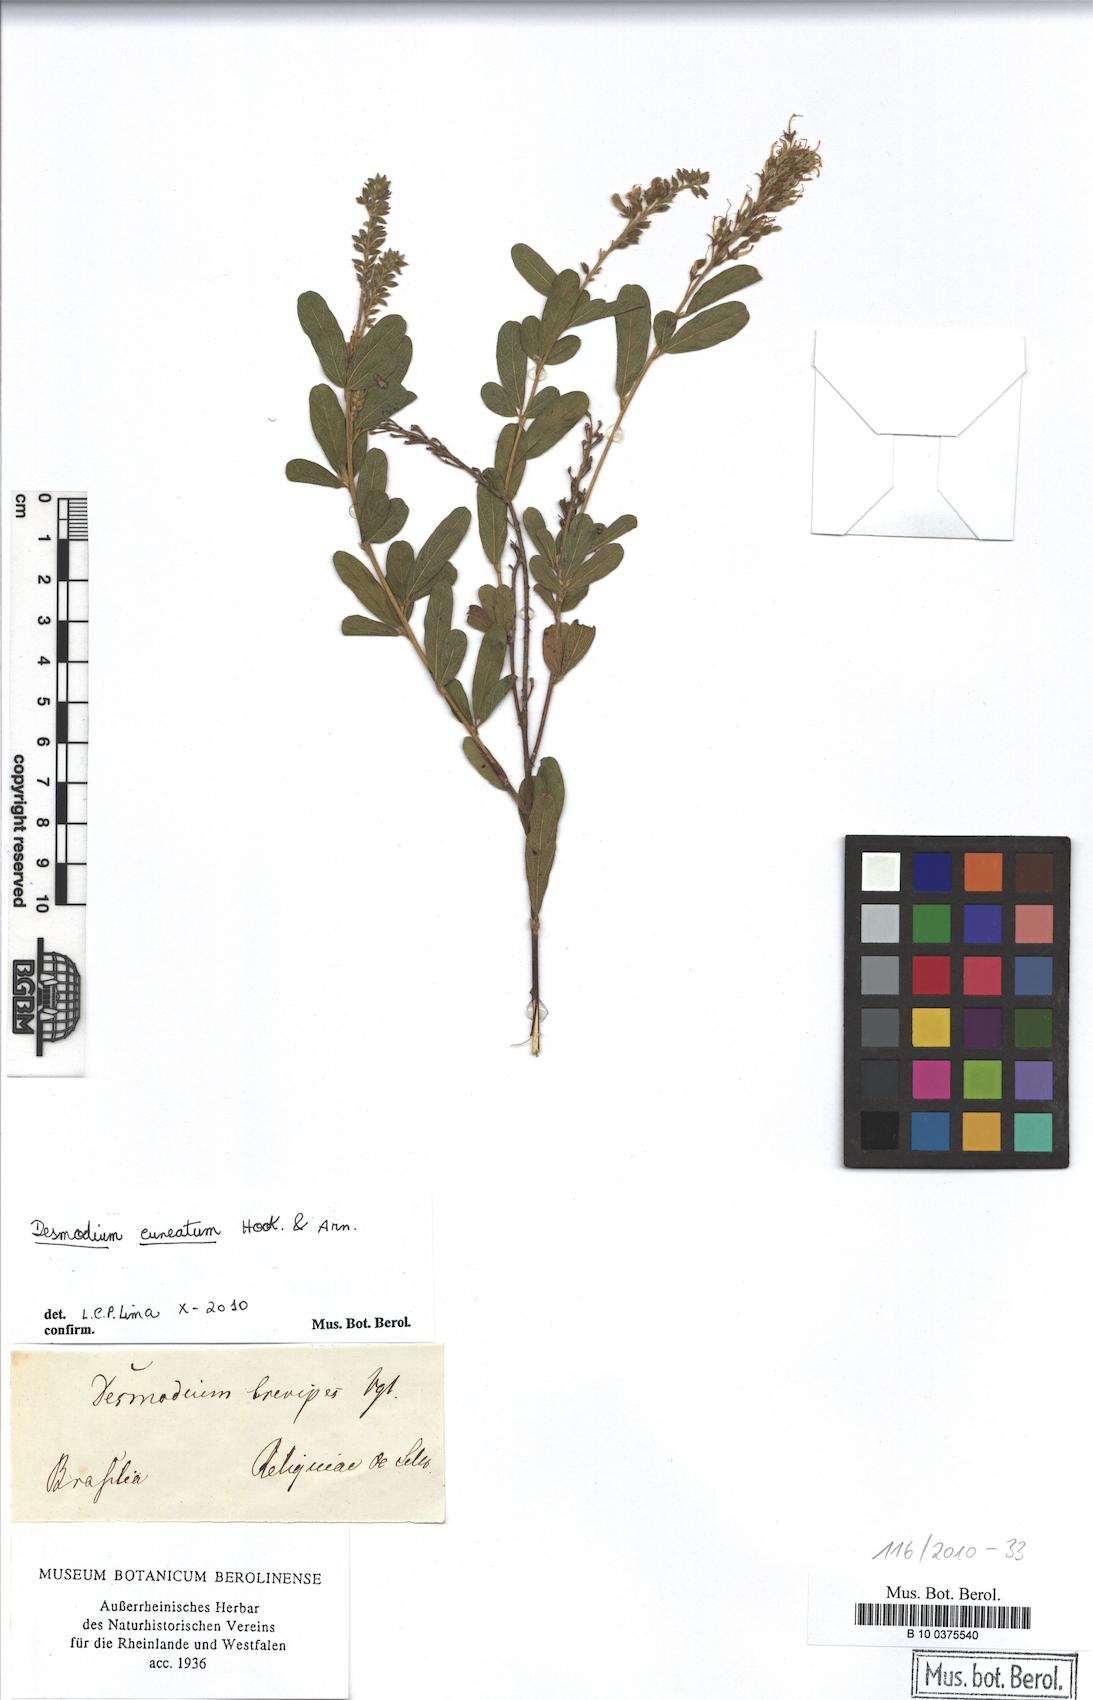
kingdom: Plantae
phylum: Tracheophyta
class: Magnoliopsida
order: Fabales
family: Fabaceae
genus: Desmodium
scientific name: Desmodium cuneatum
